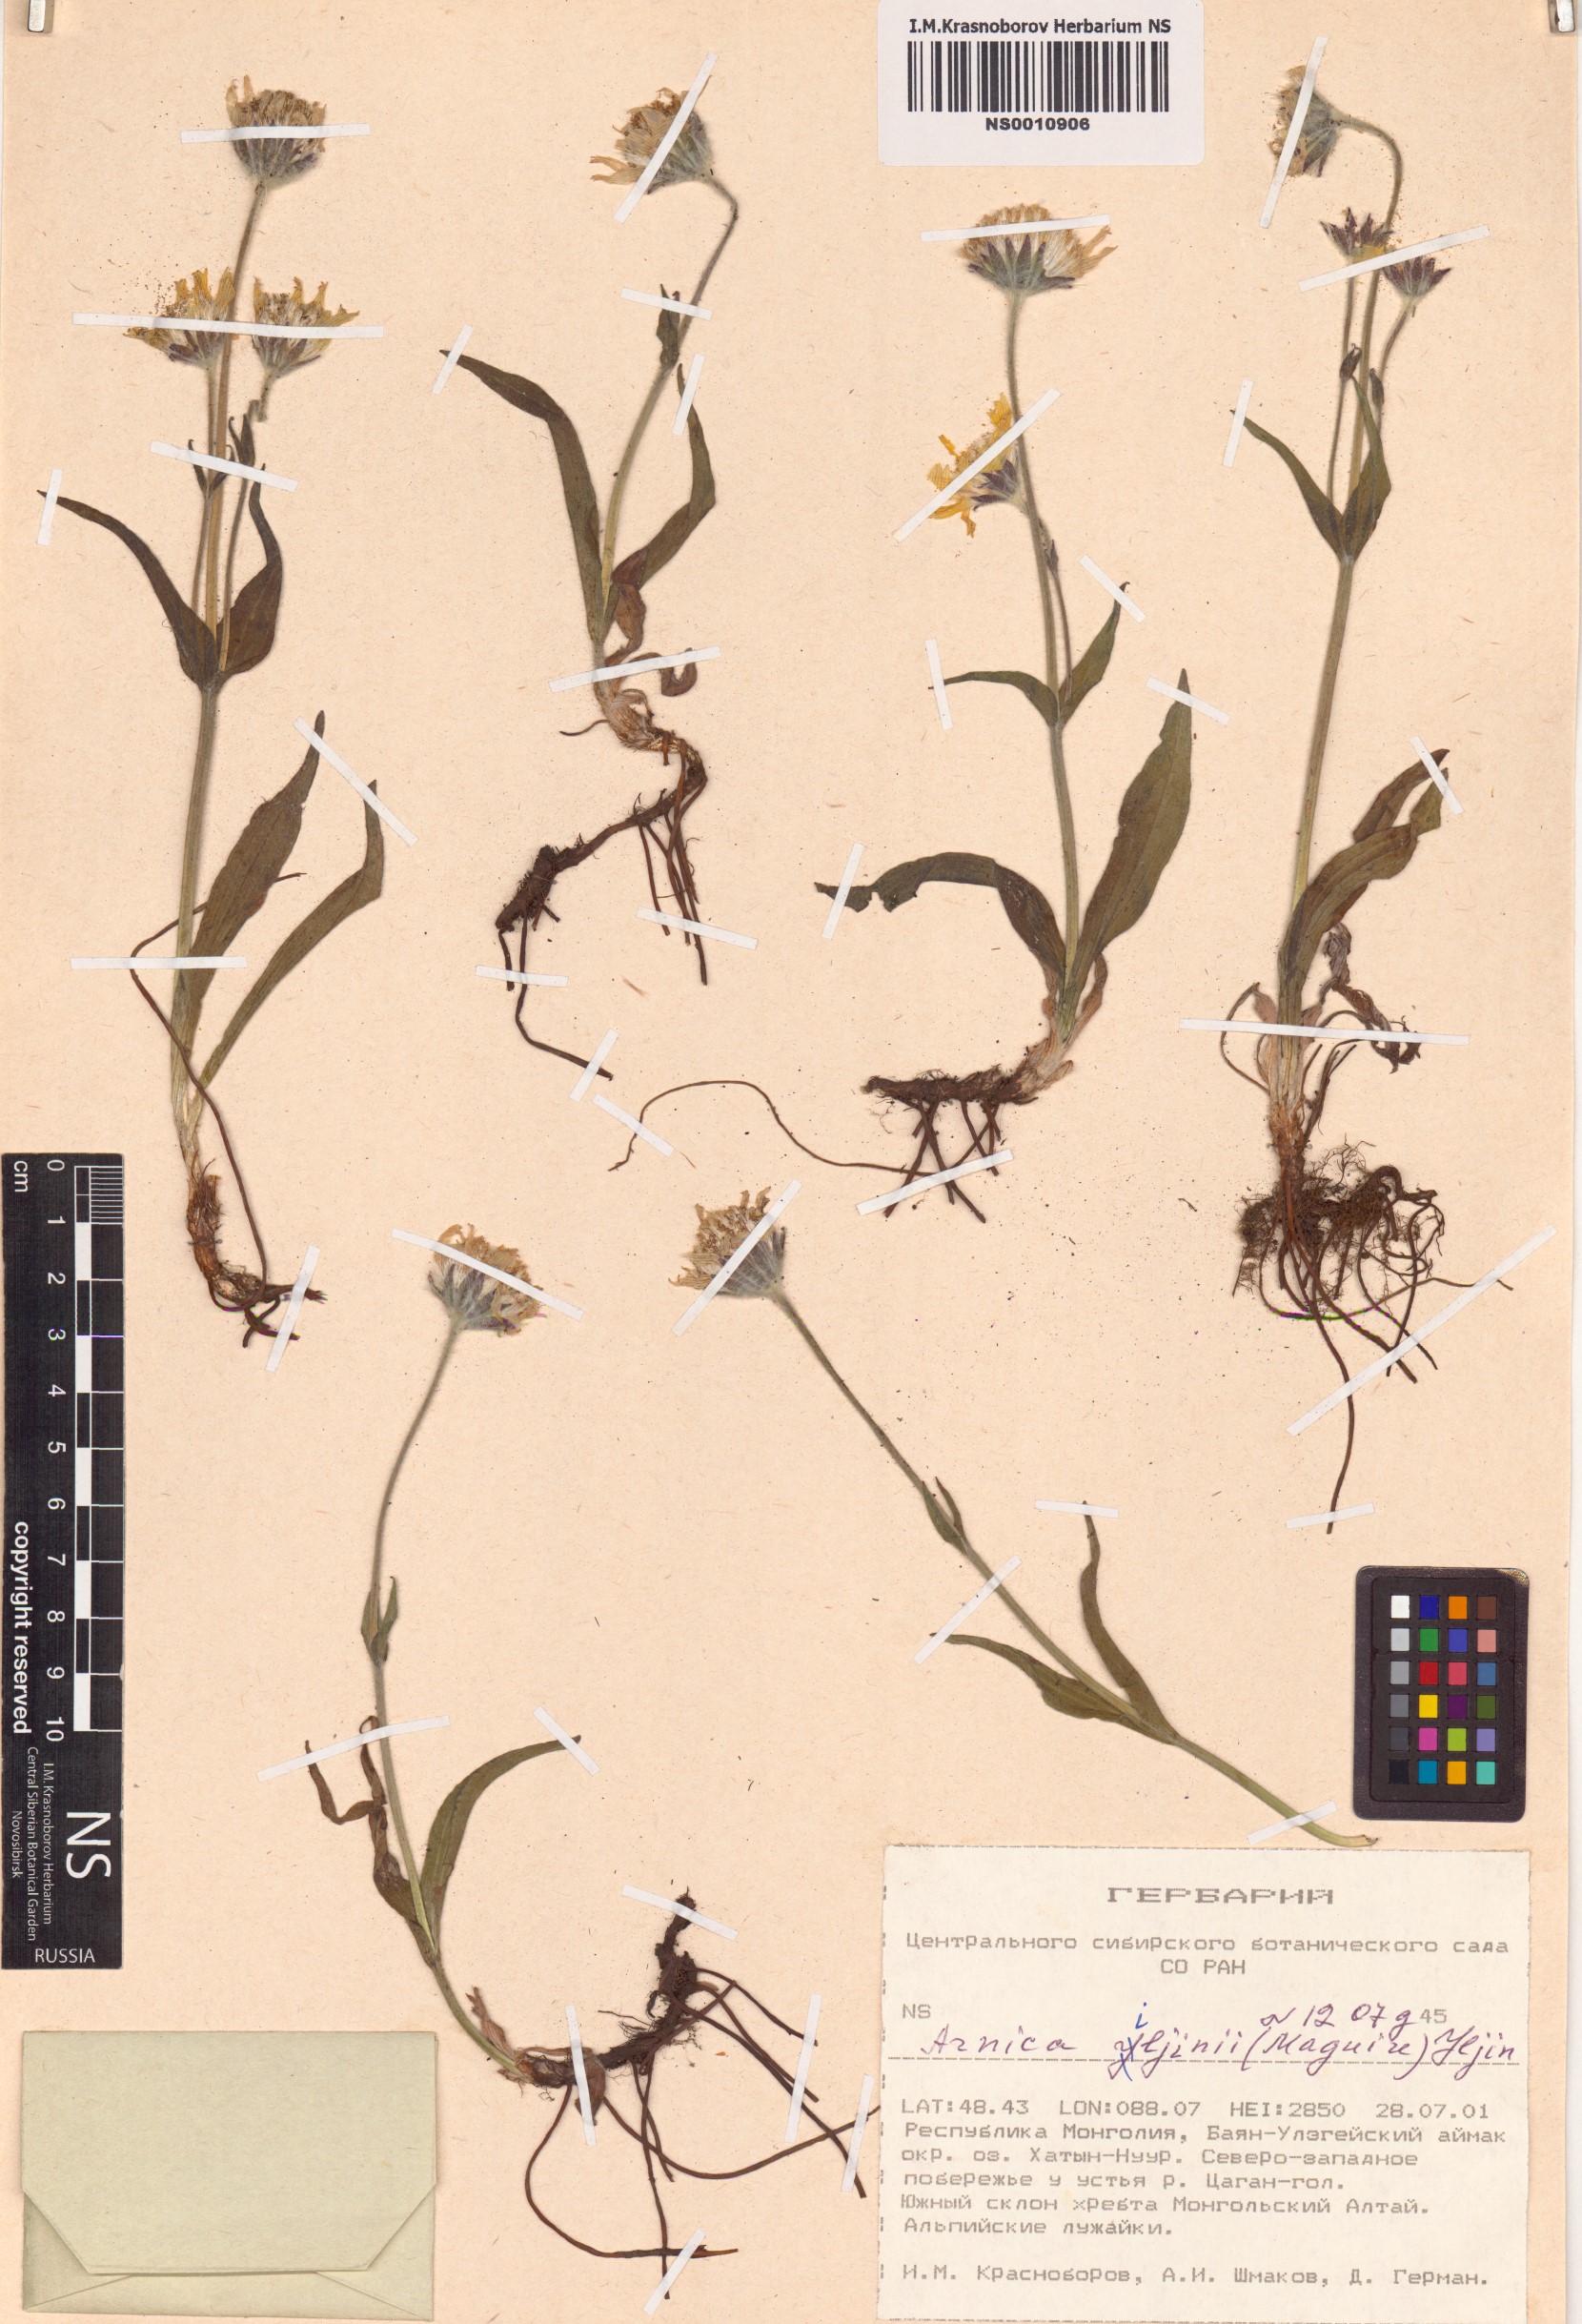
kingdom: Plantae
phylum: Tracheophyta
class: Magnoliopsida
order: Asterales
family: Asteraceae
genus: Arnica
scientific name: Arnica angustifolia
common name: Arctic arnica
